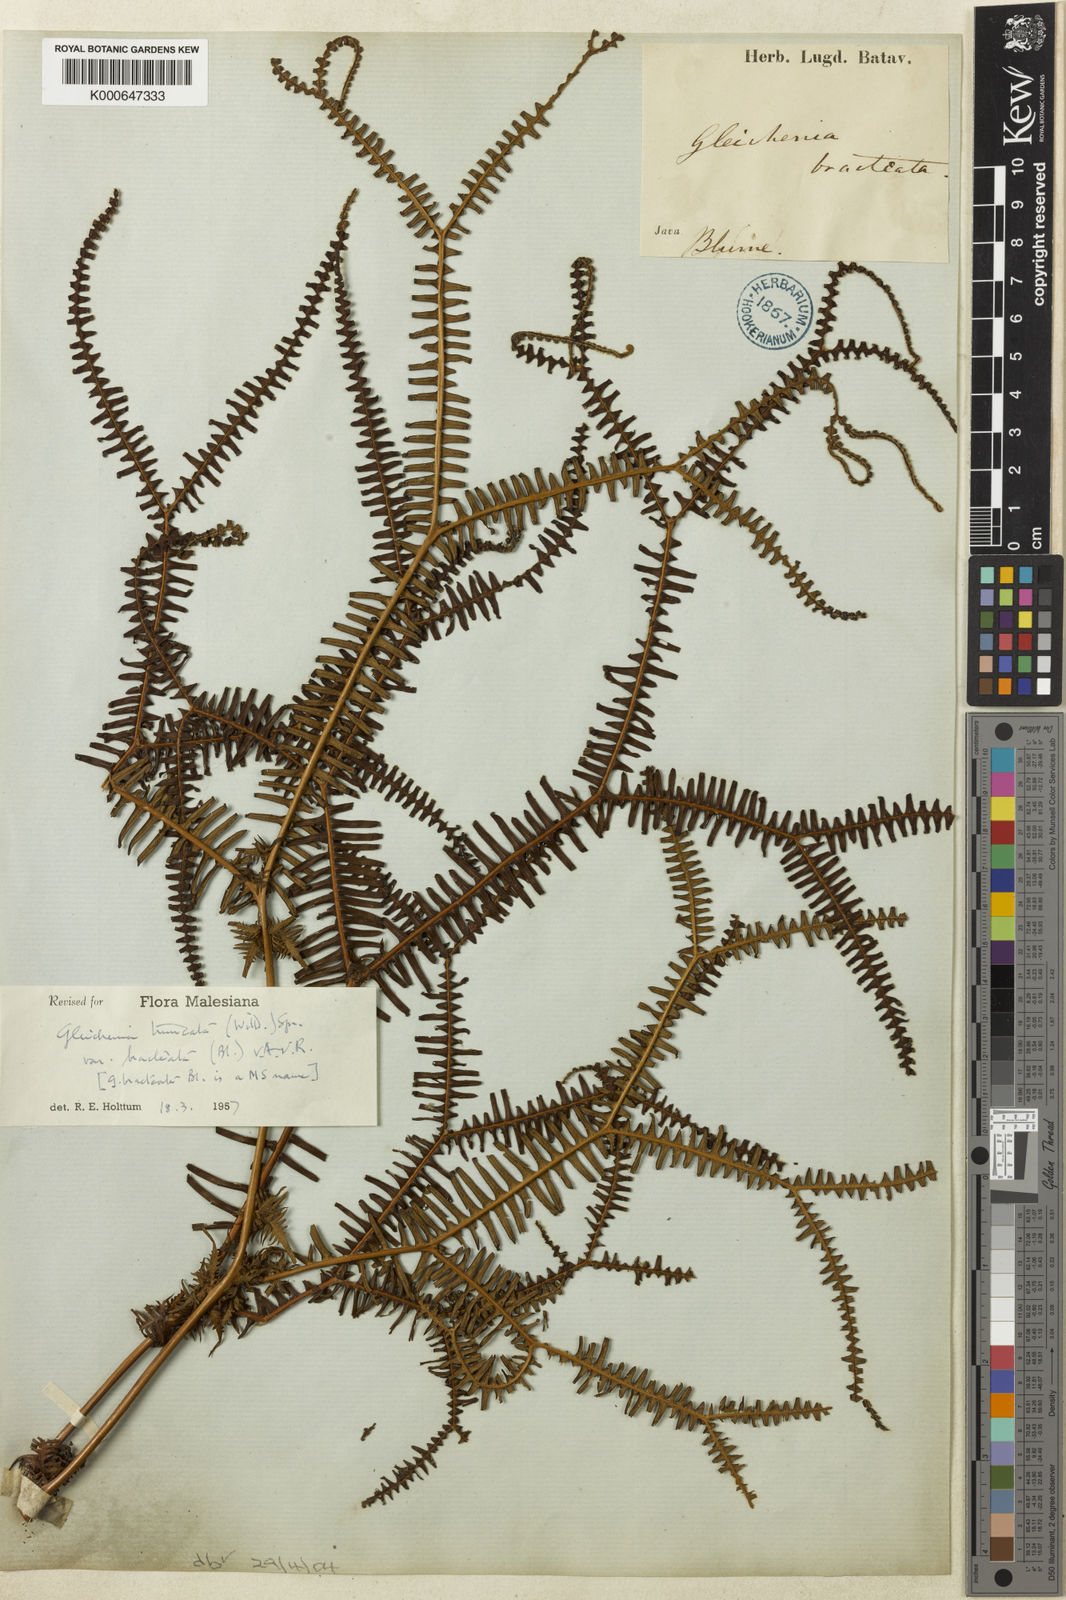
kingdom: Plantae
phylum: Tracheophyta
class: Polypodiopsida
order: Gleicheniales
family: Gleicheniaceae
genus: Sticherus
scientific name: Sticherus truncatus
